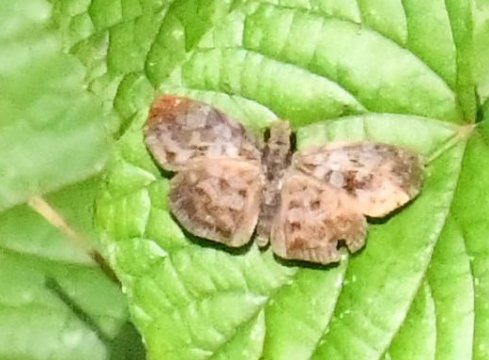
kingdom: Animalia
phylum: Arthropoda
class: Insecta
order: Lepidoptera
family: Hesperiidae
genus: Gorgythion
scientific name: Gorgythion beggina
